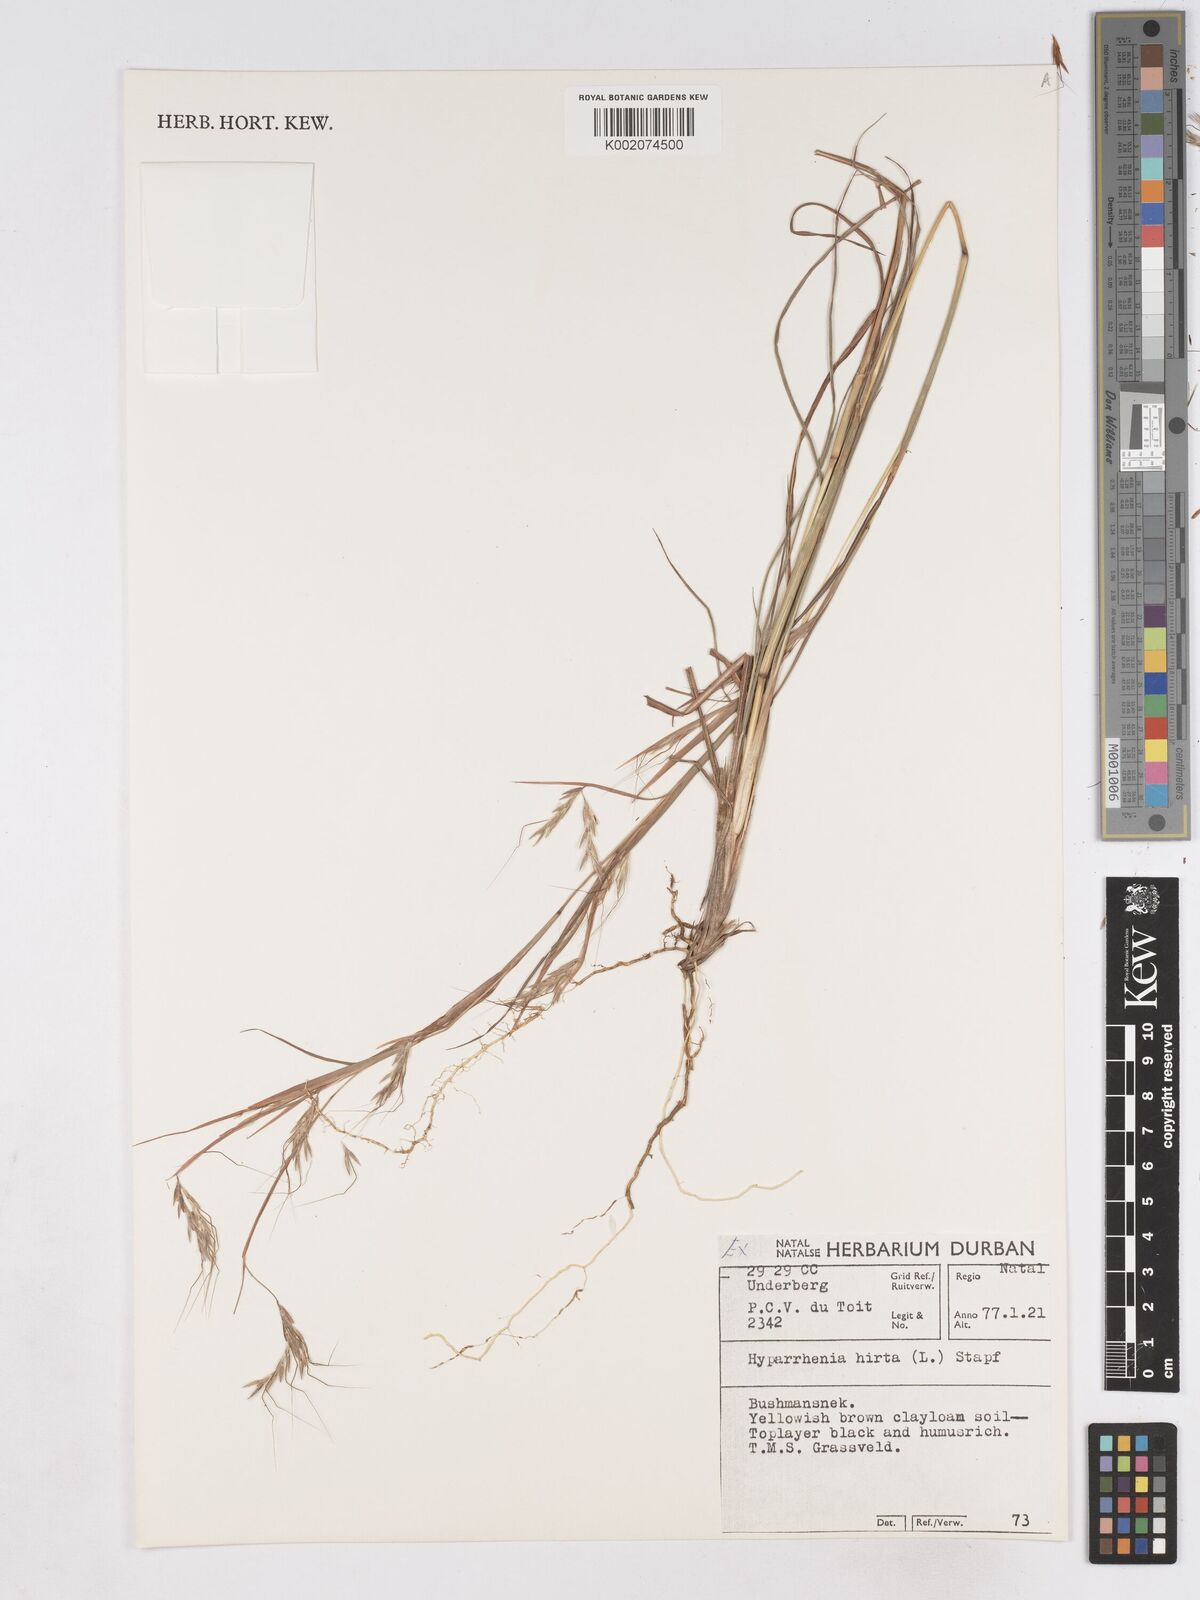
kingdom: Plantae
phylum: Tracheophyta
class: Liliopsida
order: Poales
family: Poaceae
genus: Hyparrhenia
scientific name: Hyparrhenia hirta
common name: Thatching grass
